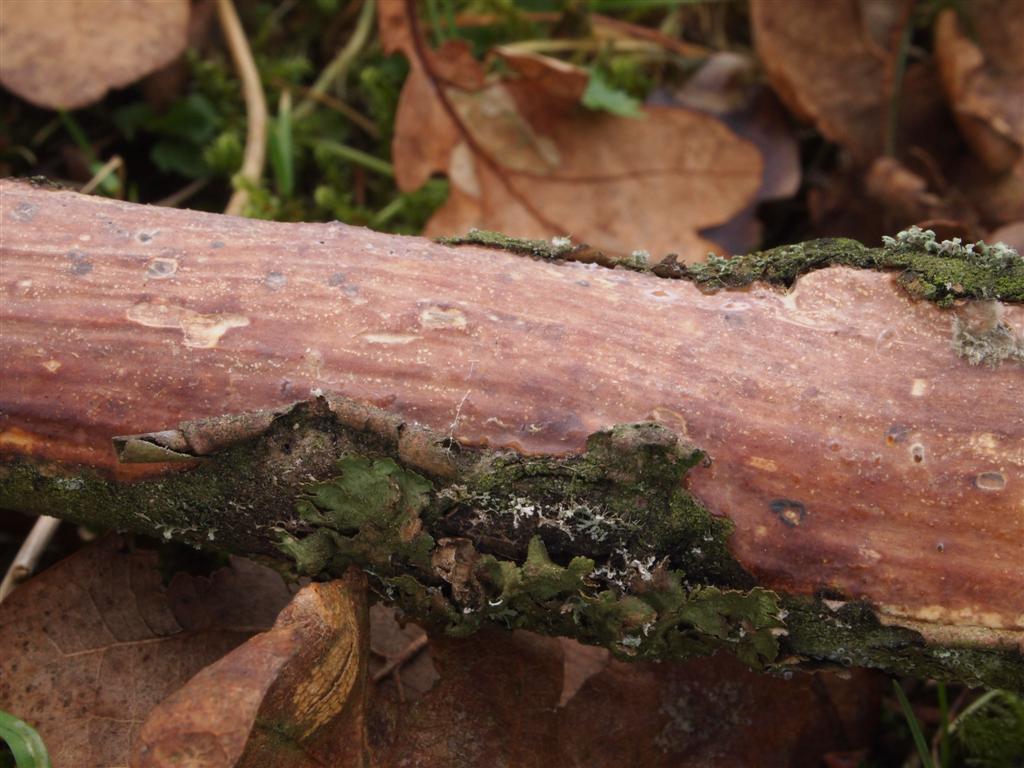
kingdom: Fungi
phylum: Basidiomycota
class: Agaricomycetes
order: Corticiales
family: Vuilleminiaceae
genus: Vuilleminia
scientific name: Vuilleminia comedens
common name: almindelig barksprænger
